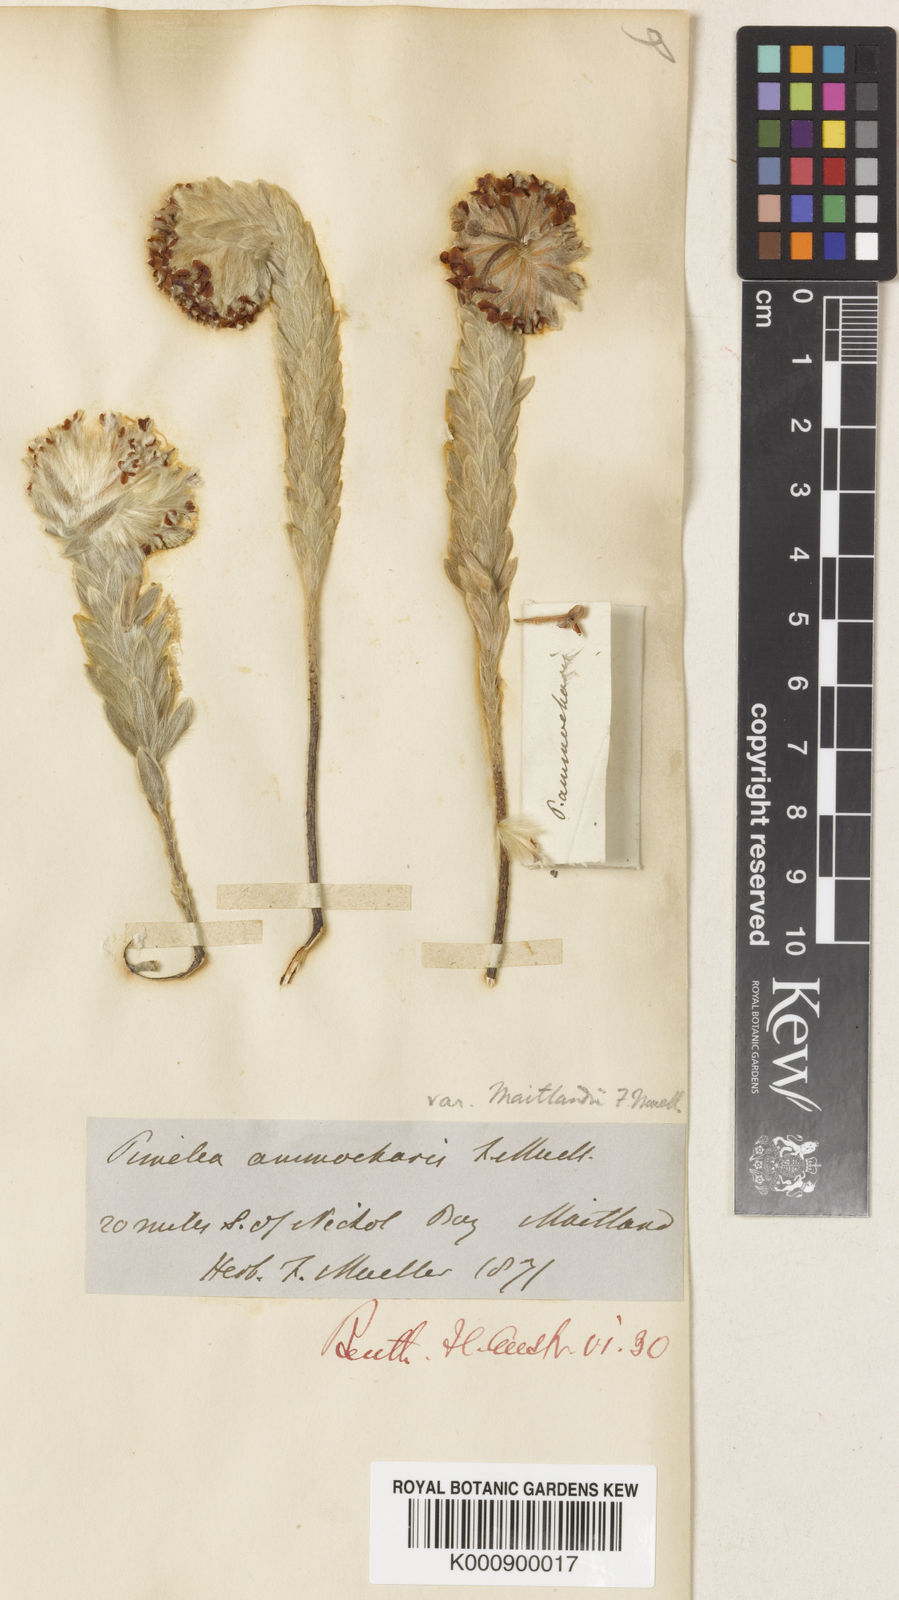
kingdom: Plantae
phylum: Tracheophyta
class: Magnoliopsida
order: Malvales
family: Thymelaeaceae
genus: Pimelea
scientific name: Pimelea ammocharis
